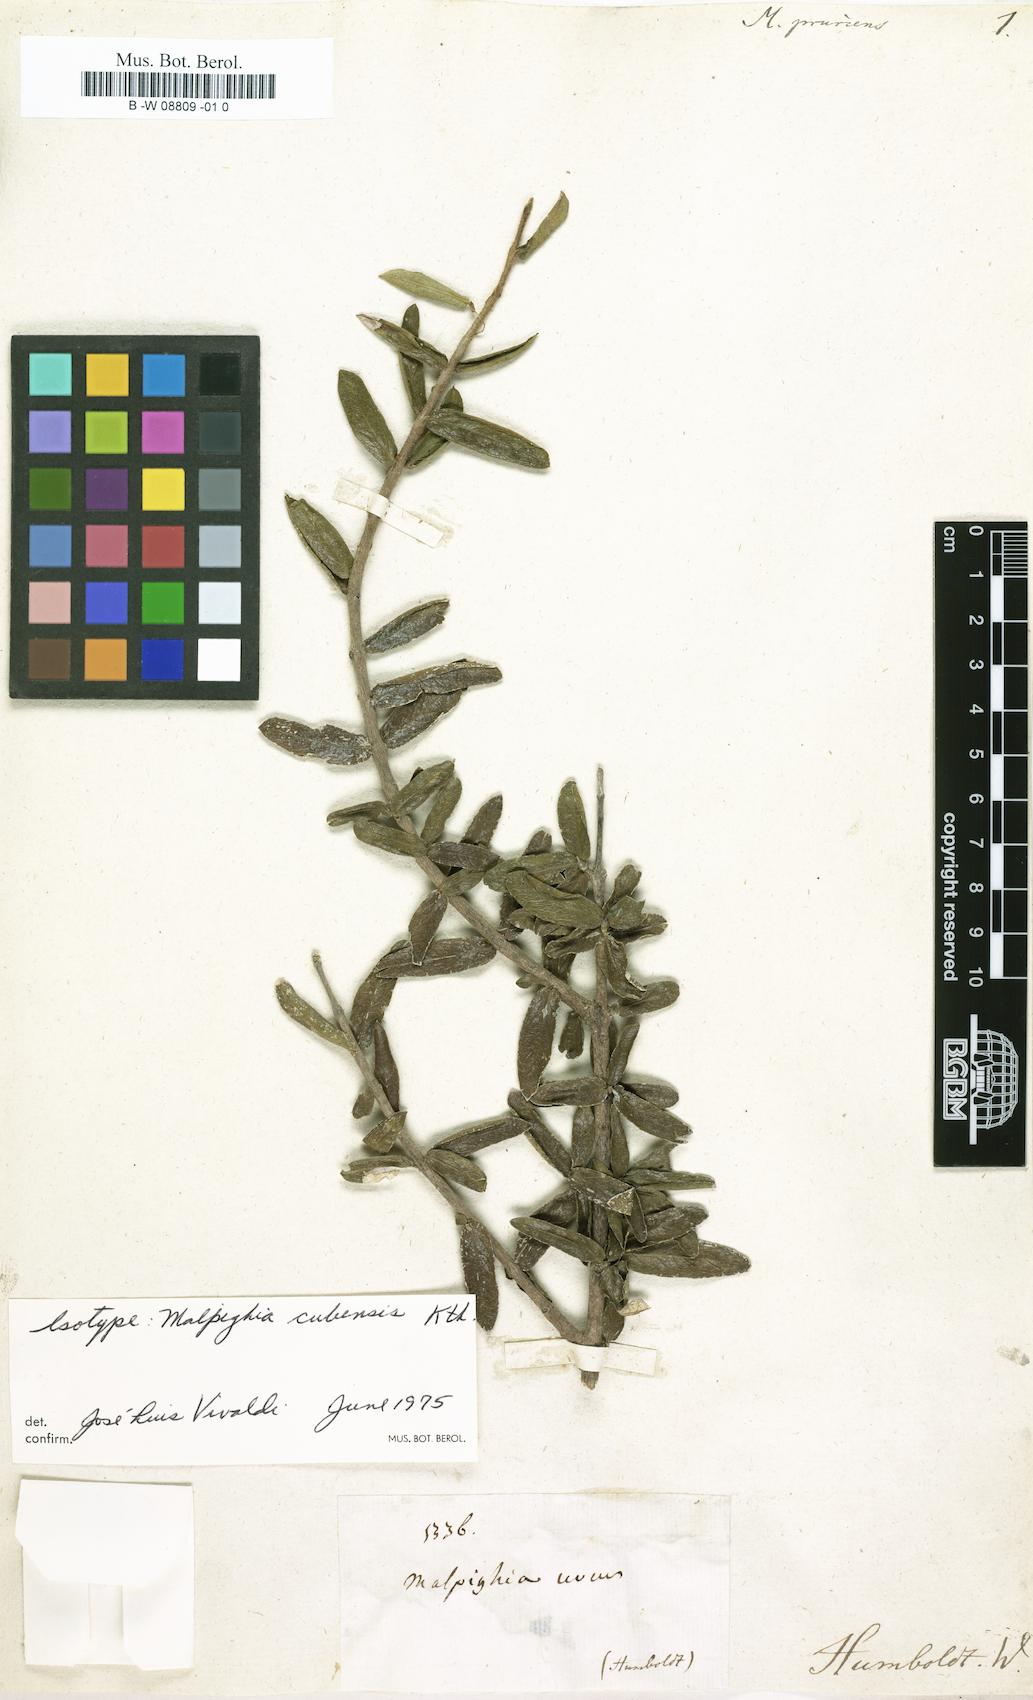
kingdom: Plantae
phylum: Tracheophyta
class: Magnoliopsida
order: Malpighiales
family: Malpighiaceae
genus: Malpighia
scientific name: Malpighia
